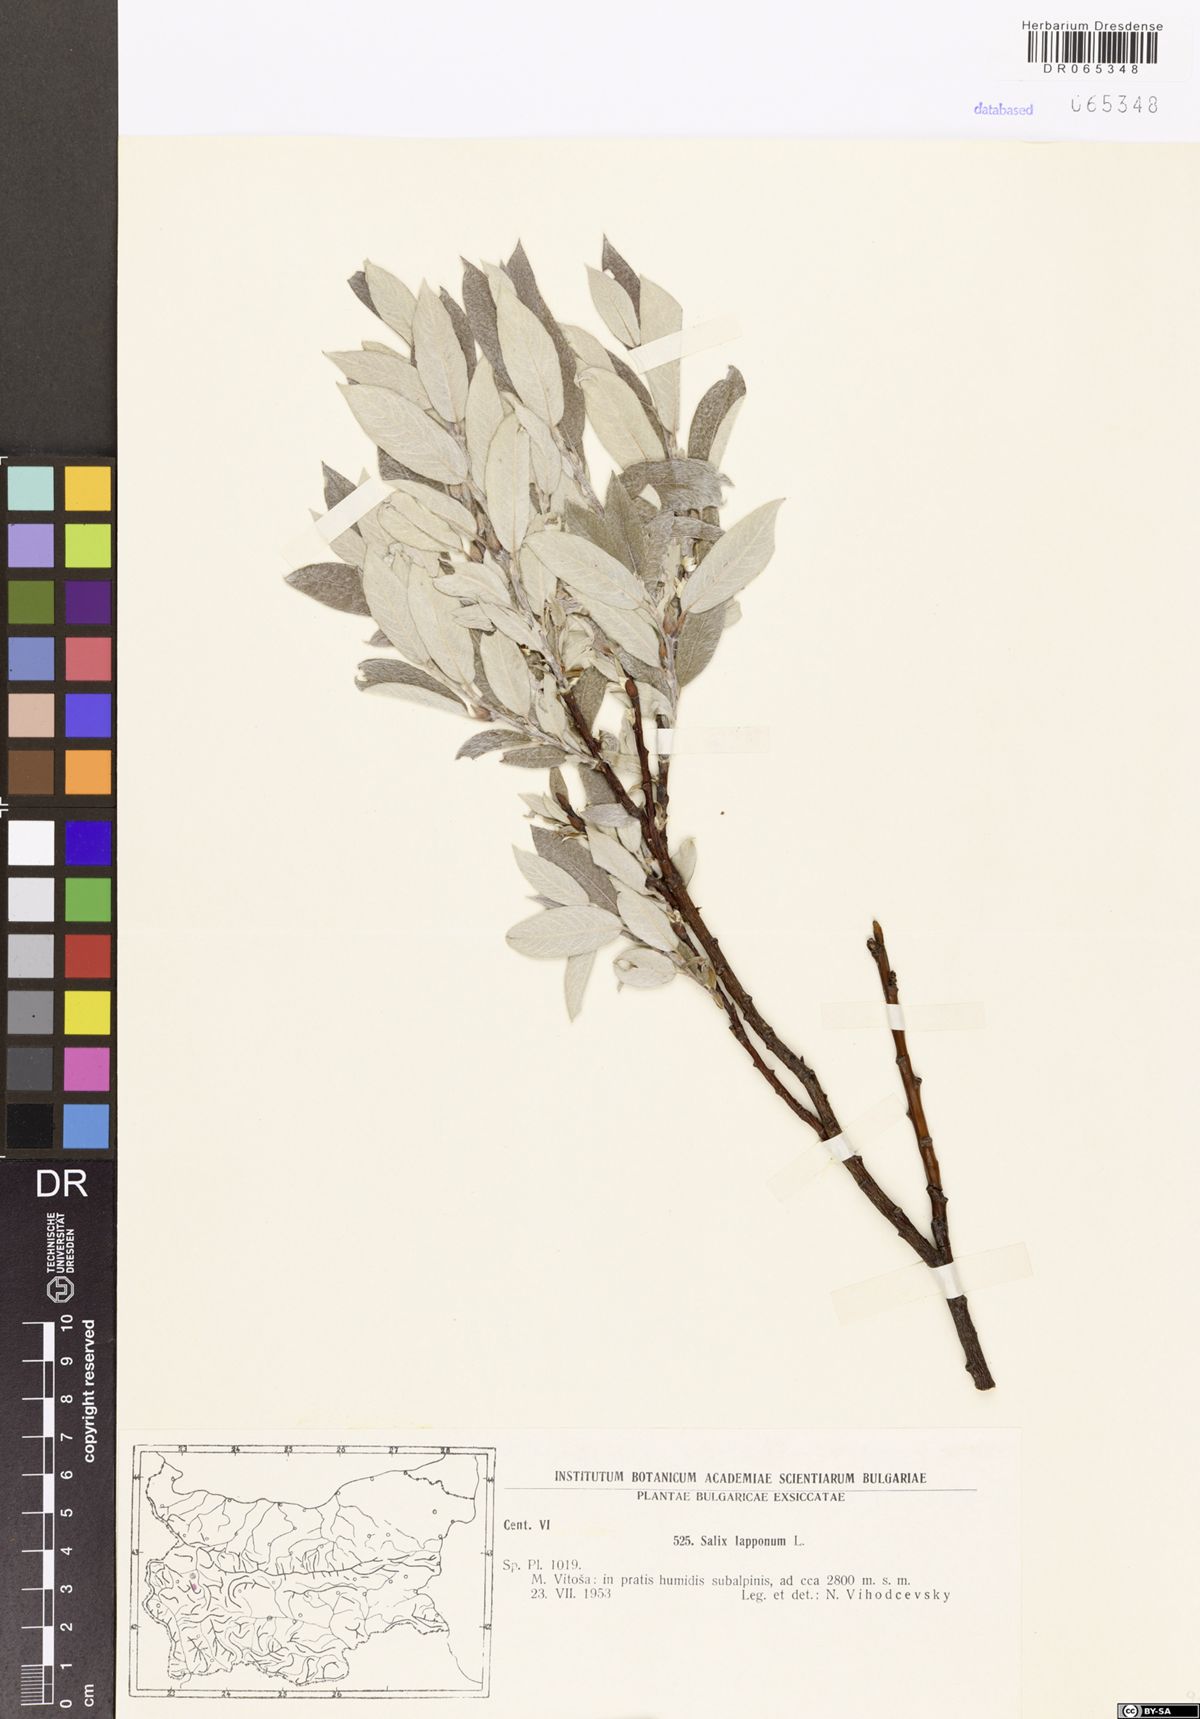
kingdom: Plantae
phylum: Tracheophyta
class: Magnoliopsida
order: Malpighiales
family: Salicaceae
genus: Salix
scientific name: Salix lapponum
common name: Downy willow
